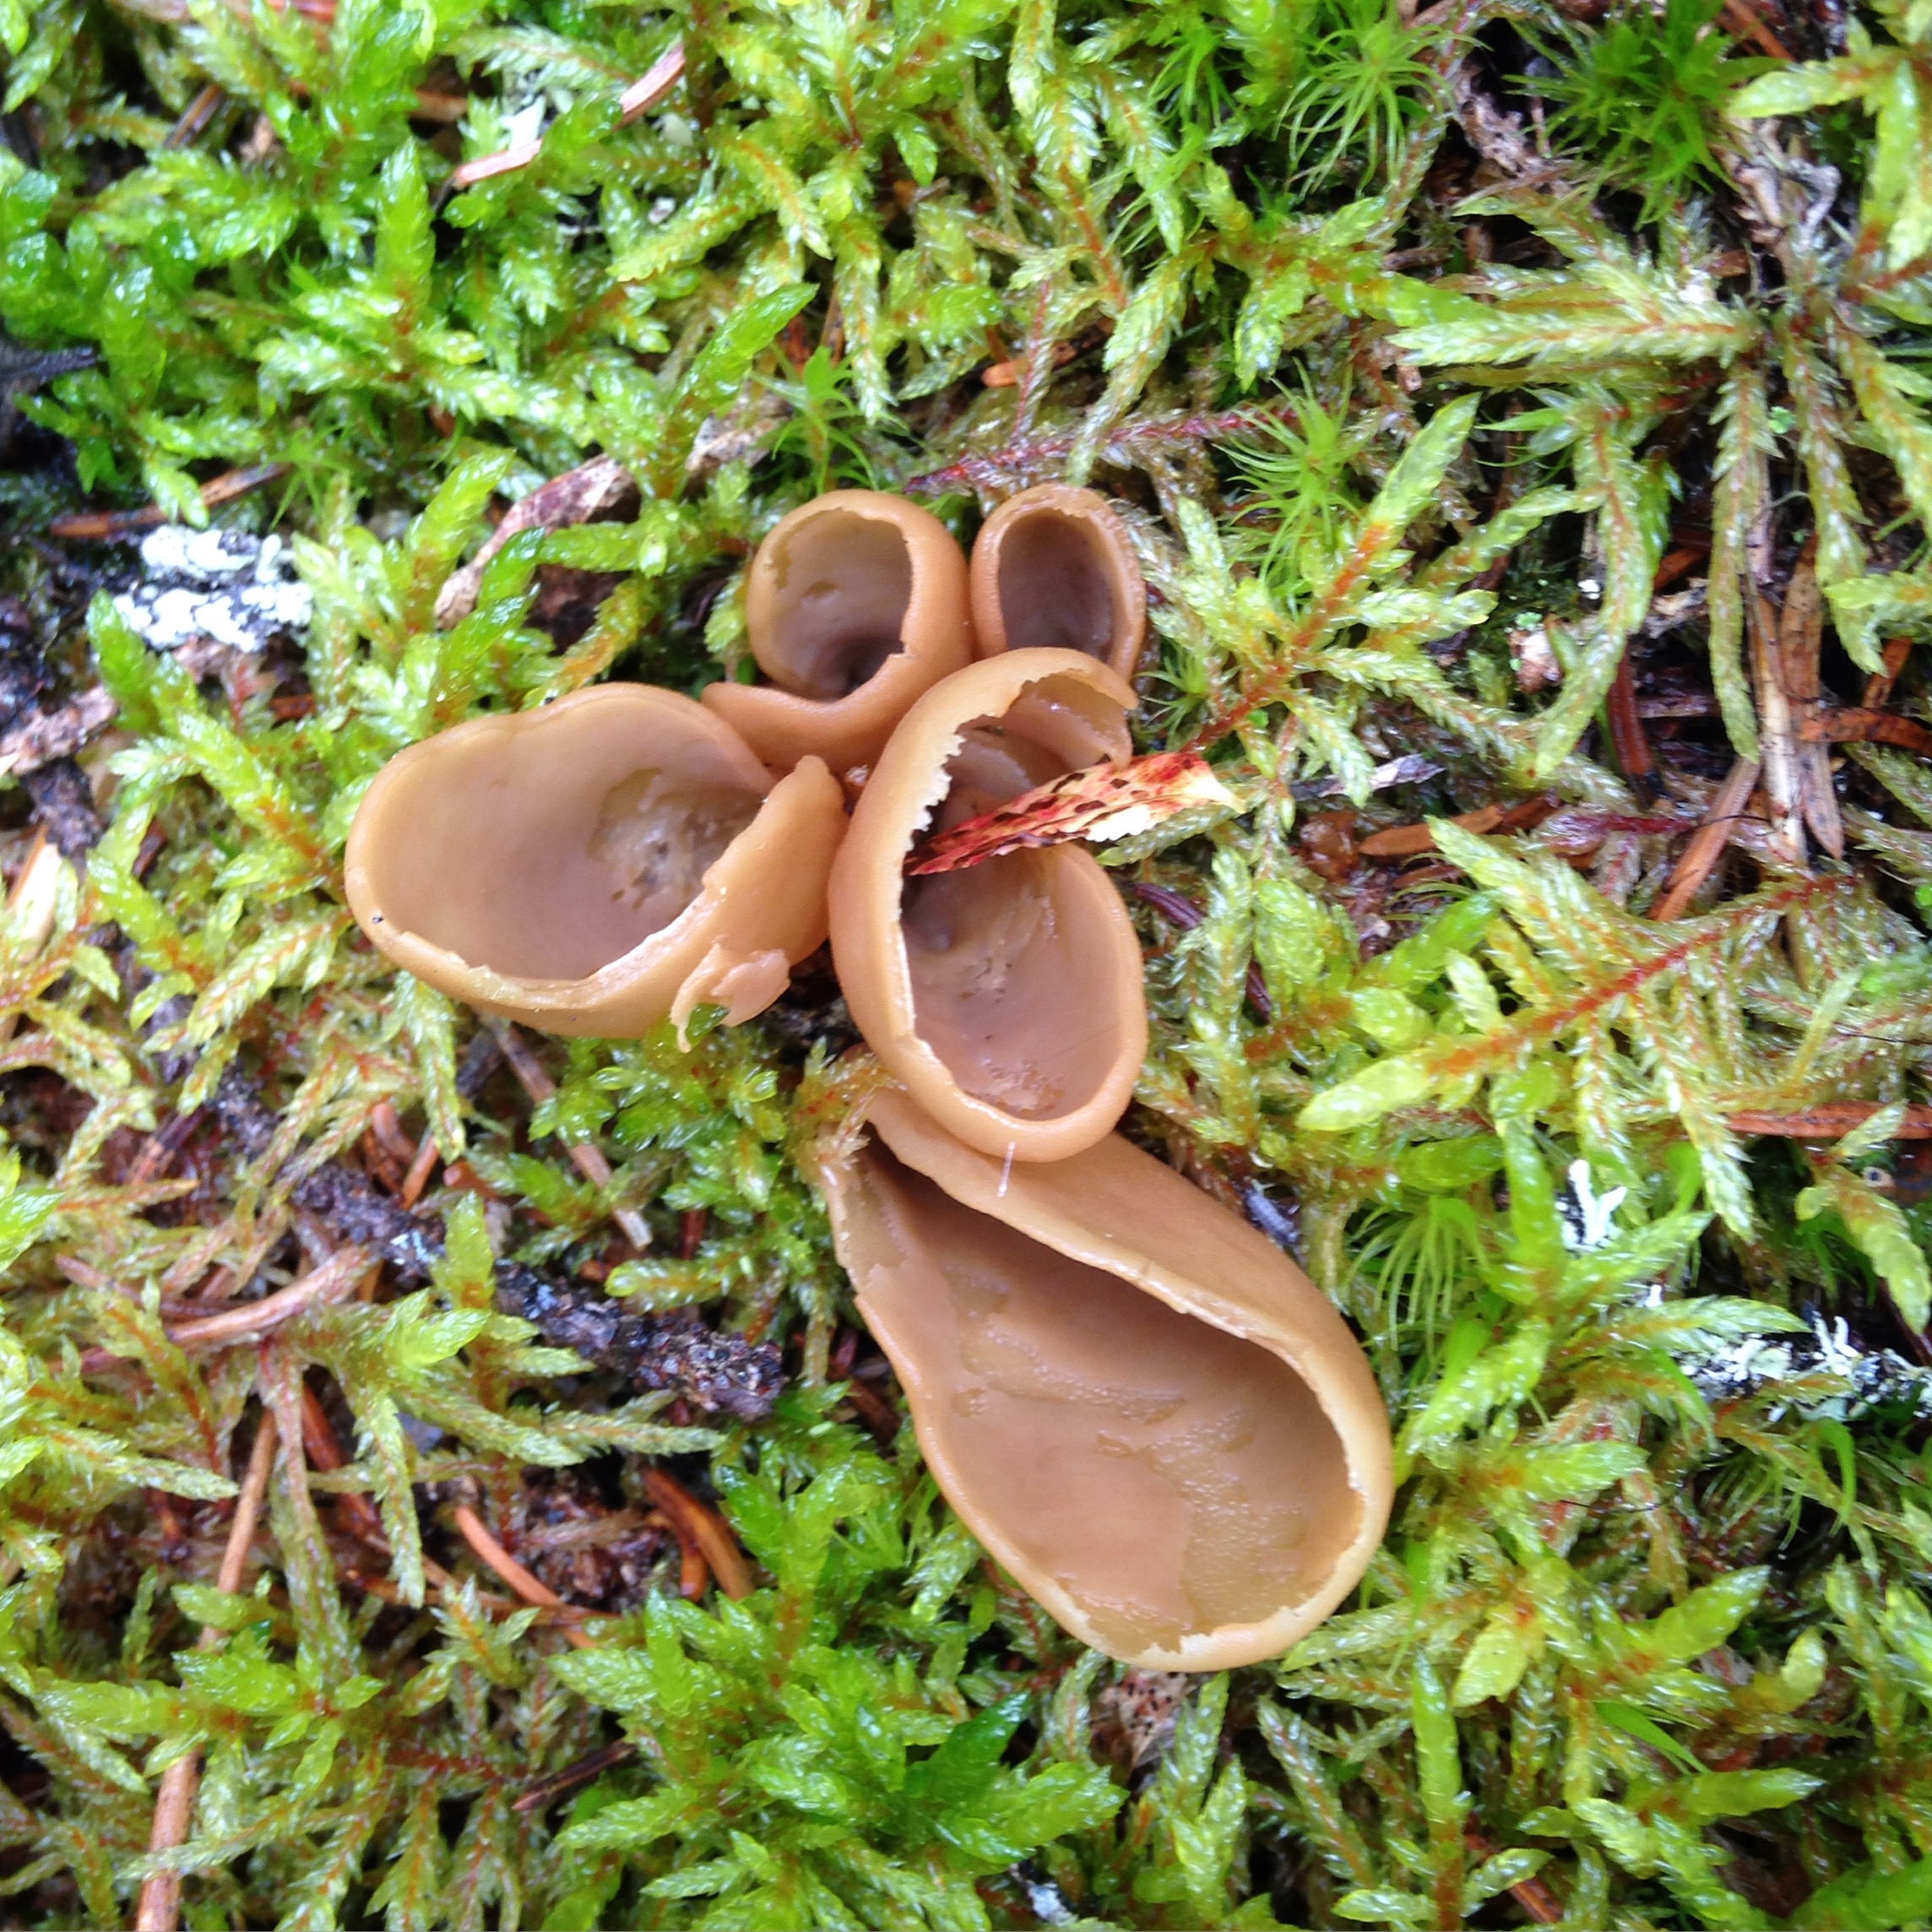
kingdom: Fungi
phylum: Ascomycota
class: Pezizomycetes
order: Pezizales
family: Otideaceae
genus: Otidea
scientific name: Otidea cantharella
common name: Cupped ear
